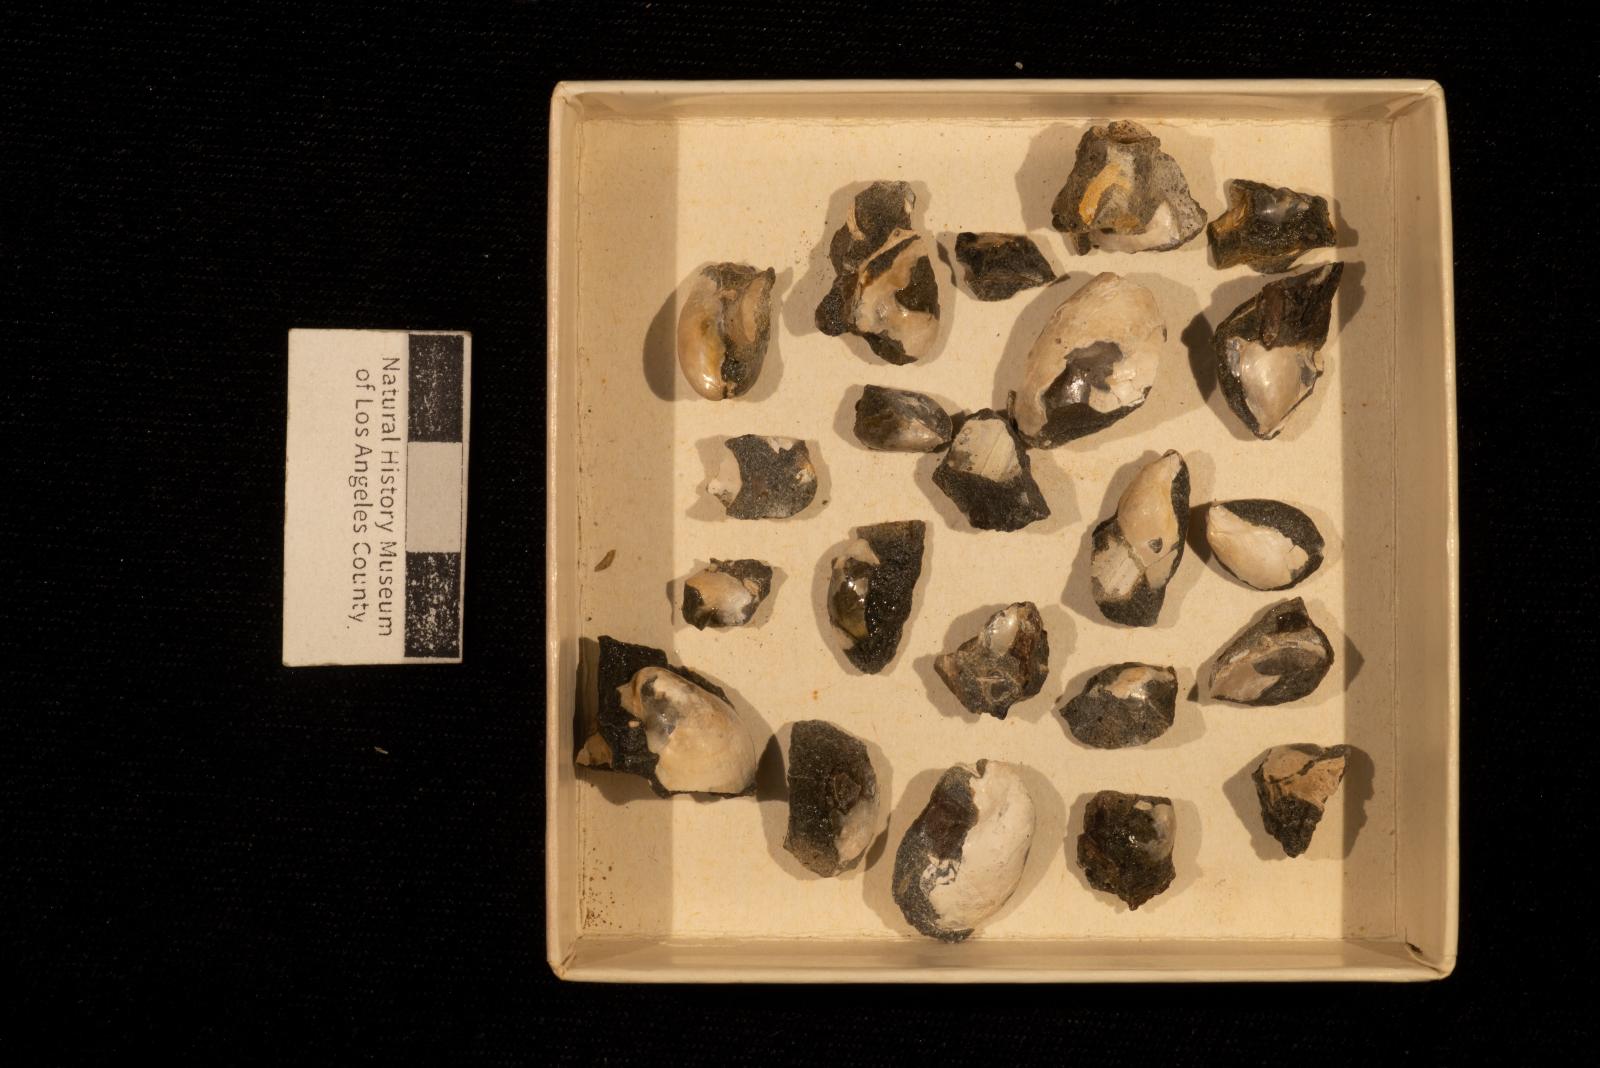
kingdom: Animalia
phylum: Mollusca
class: Bivalvia
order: Ostreida
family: Pteriidae
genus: Pteria
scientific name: Pteria pellucida
